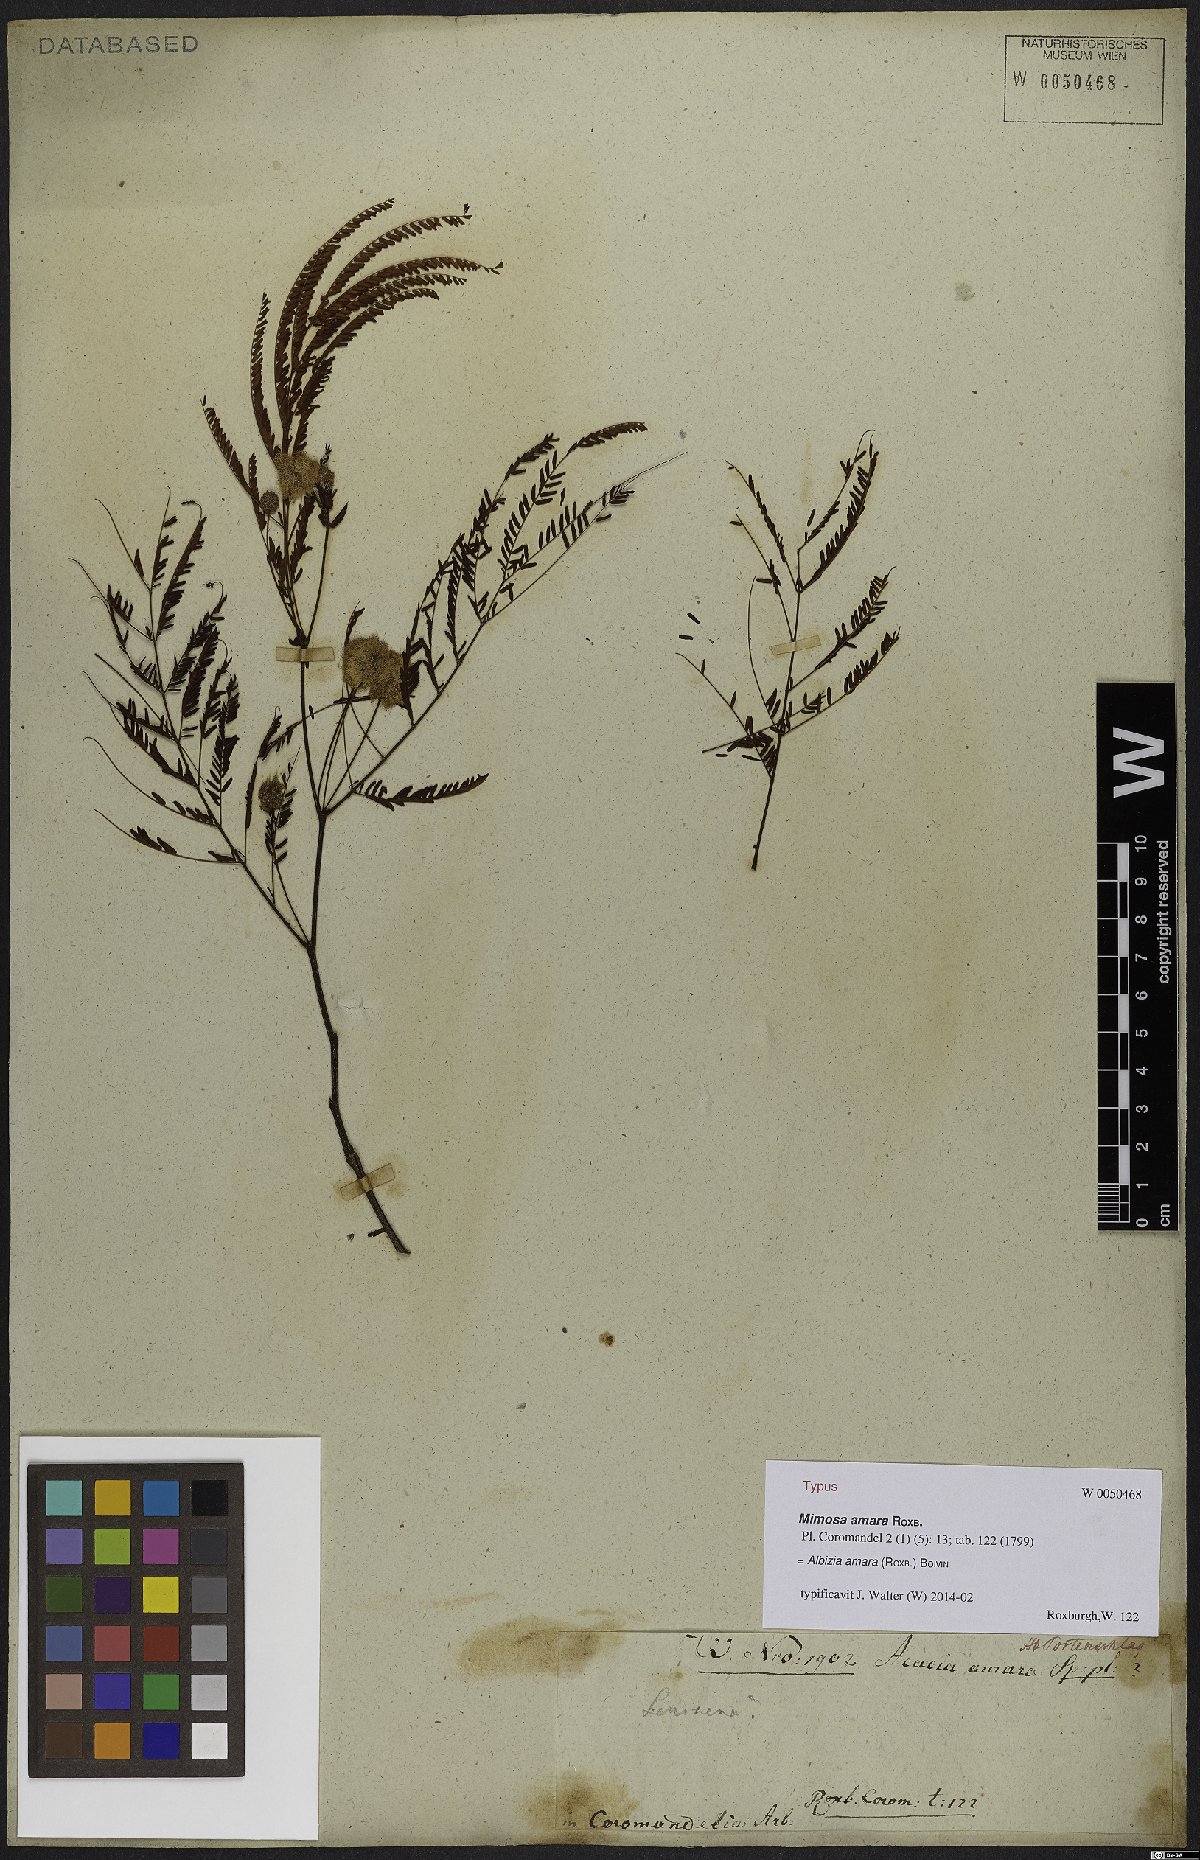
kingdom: Plantae
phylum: Tracheophyta
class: Magnoliopsida
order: Fabales
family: Fabaceae
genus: Albizia
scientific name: Albizia amara
